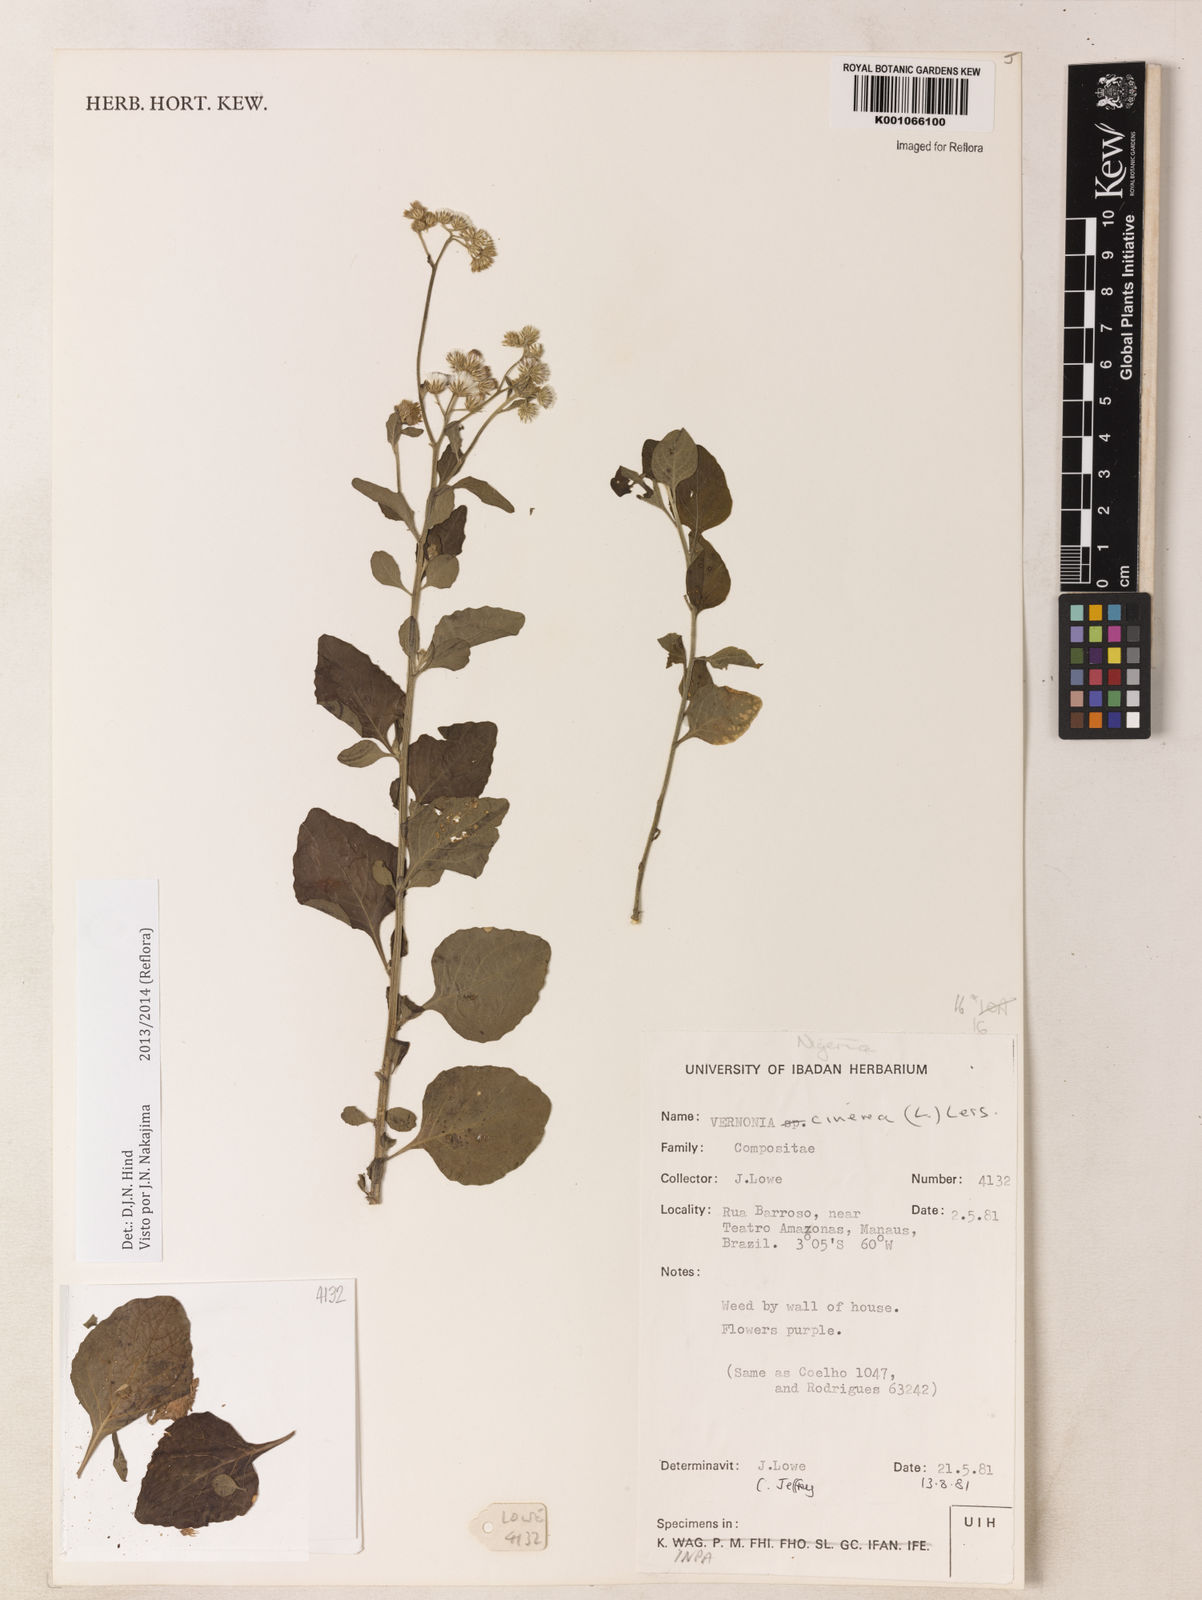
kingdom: Plantae
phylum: Tracheophyta
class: Magnoliopsida
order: Asterales
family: Asteraceae
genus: Cyanthillium
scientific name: Cyanthillium cinereum
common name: Little ironweed
